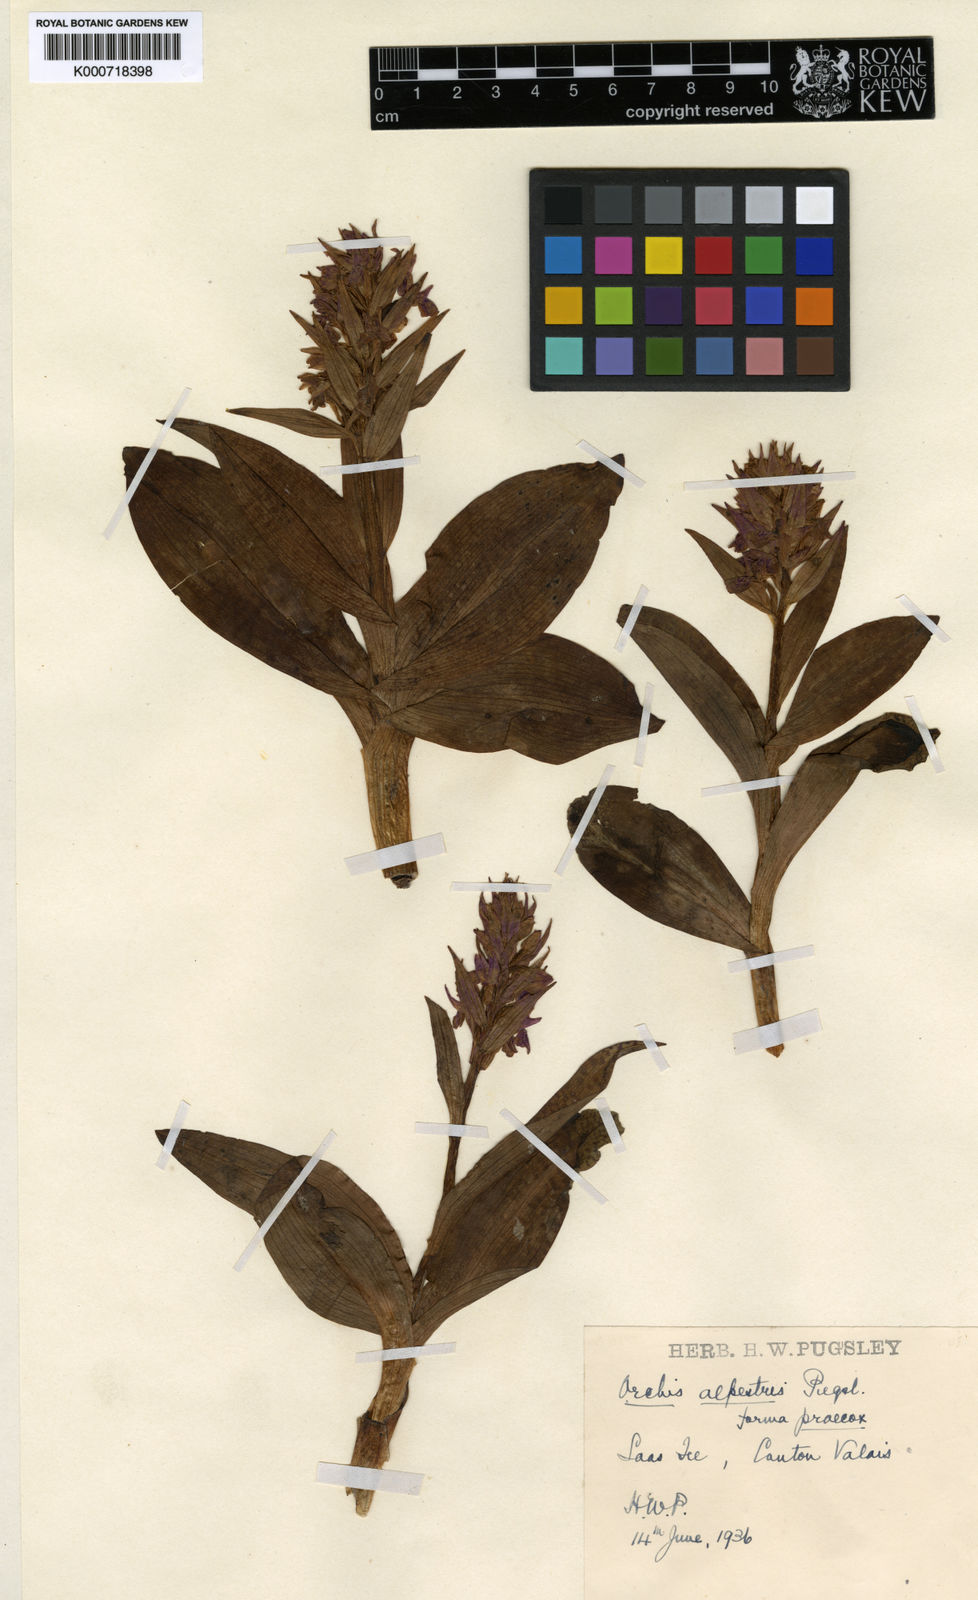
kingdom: Plantae
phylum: Tracheophyta
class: Liliopsida
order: Asparagales
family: Orchidaceae
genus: Dactylorhiza
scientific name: Dactylorhiza majalis
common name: Marsh orchid
